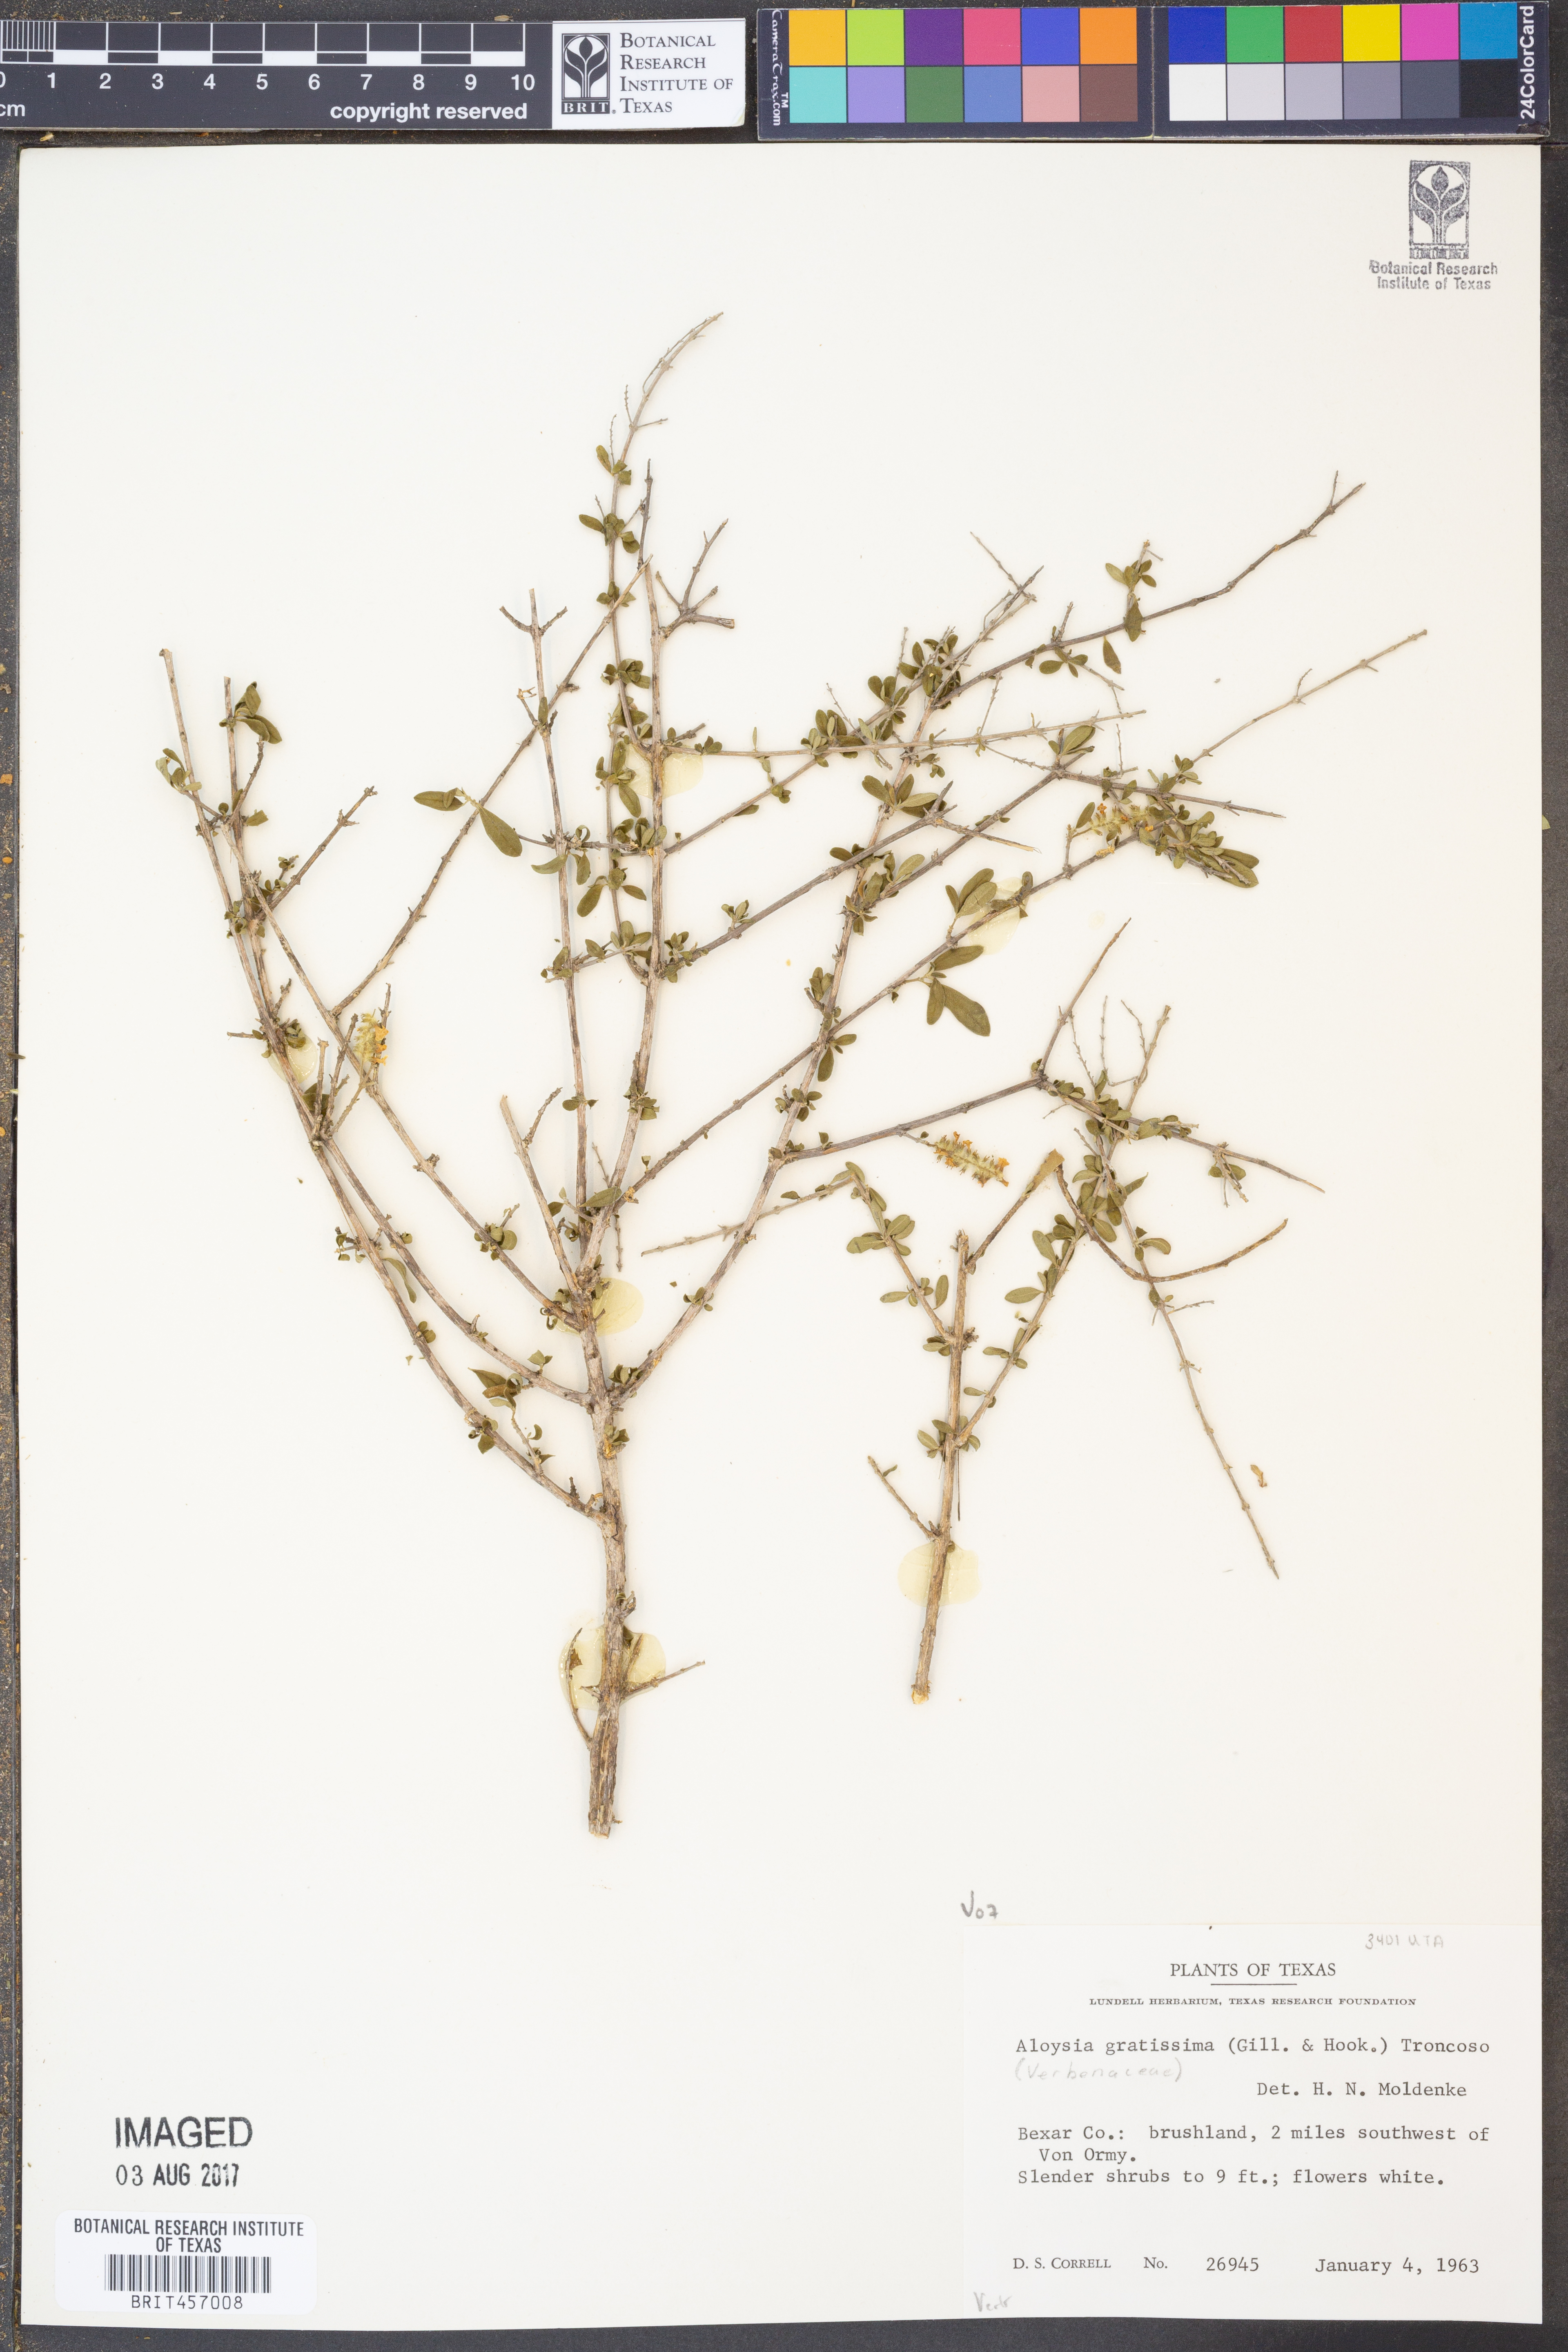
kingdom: Plantae
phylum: Tracheophyta
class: Magnoliopsida
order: Lamiales
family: Verbenaceae
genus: Aloysia
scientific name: Aloysia gratissima
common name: Common bee-brush
